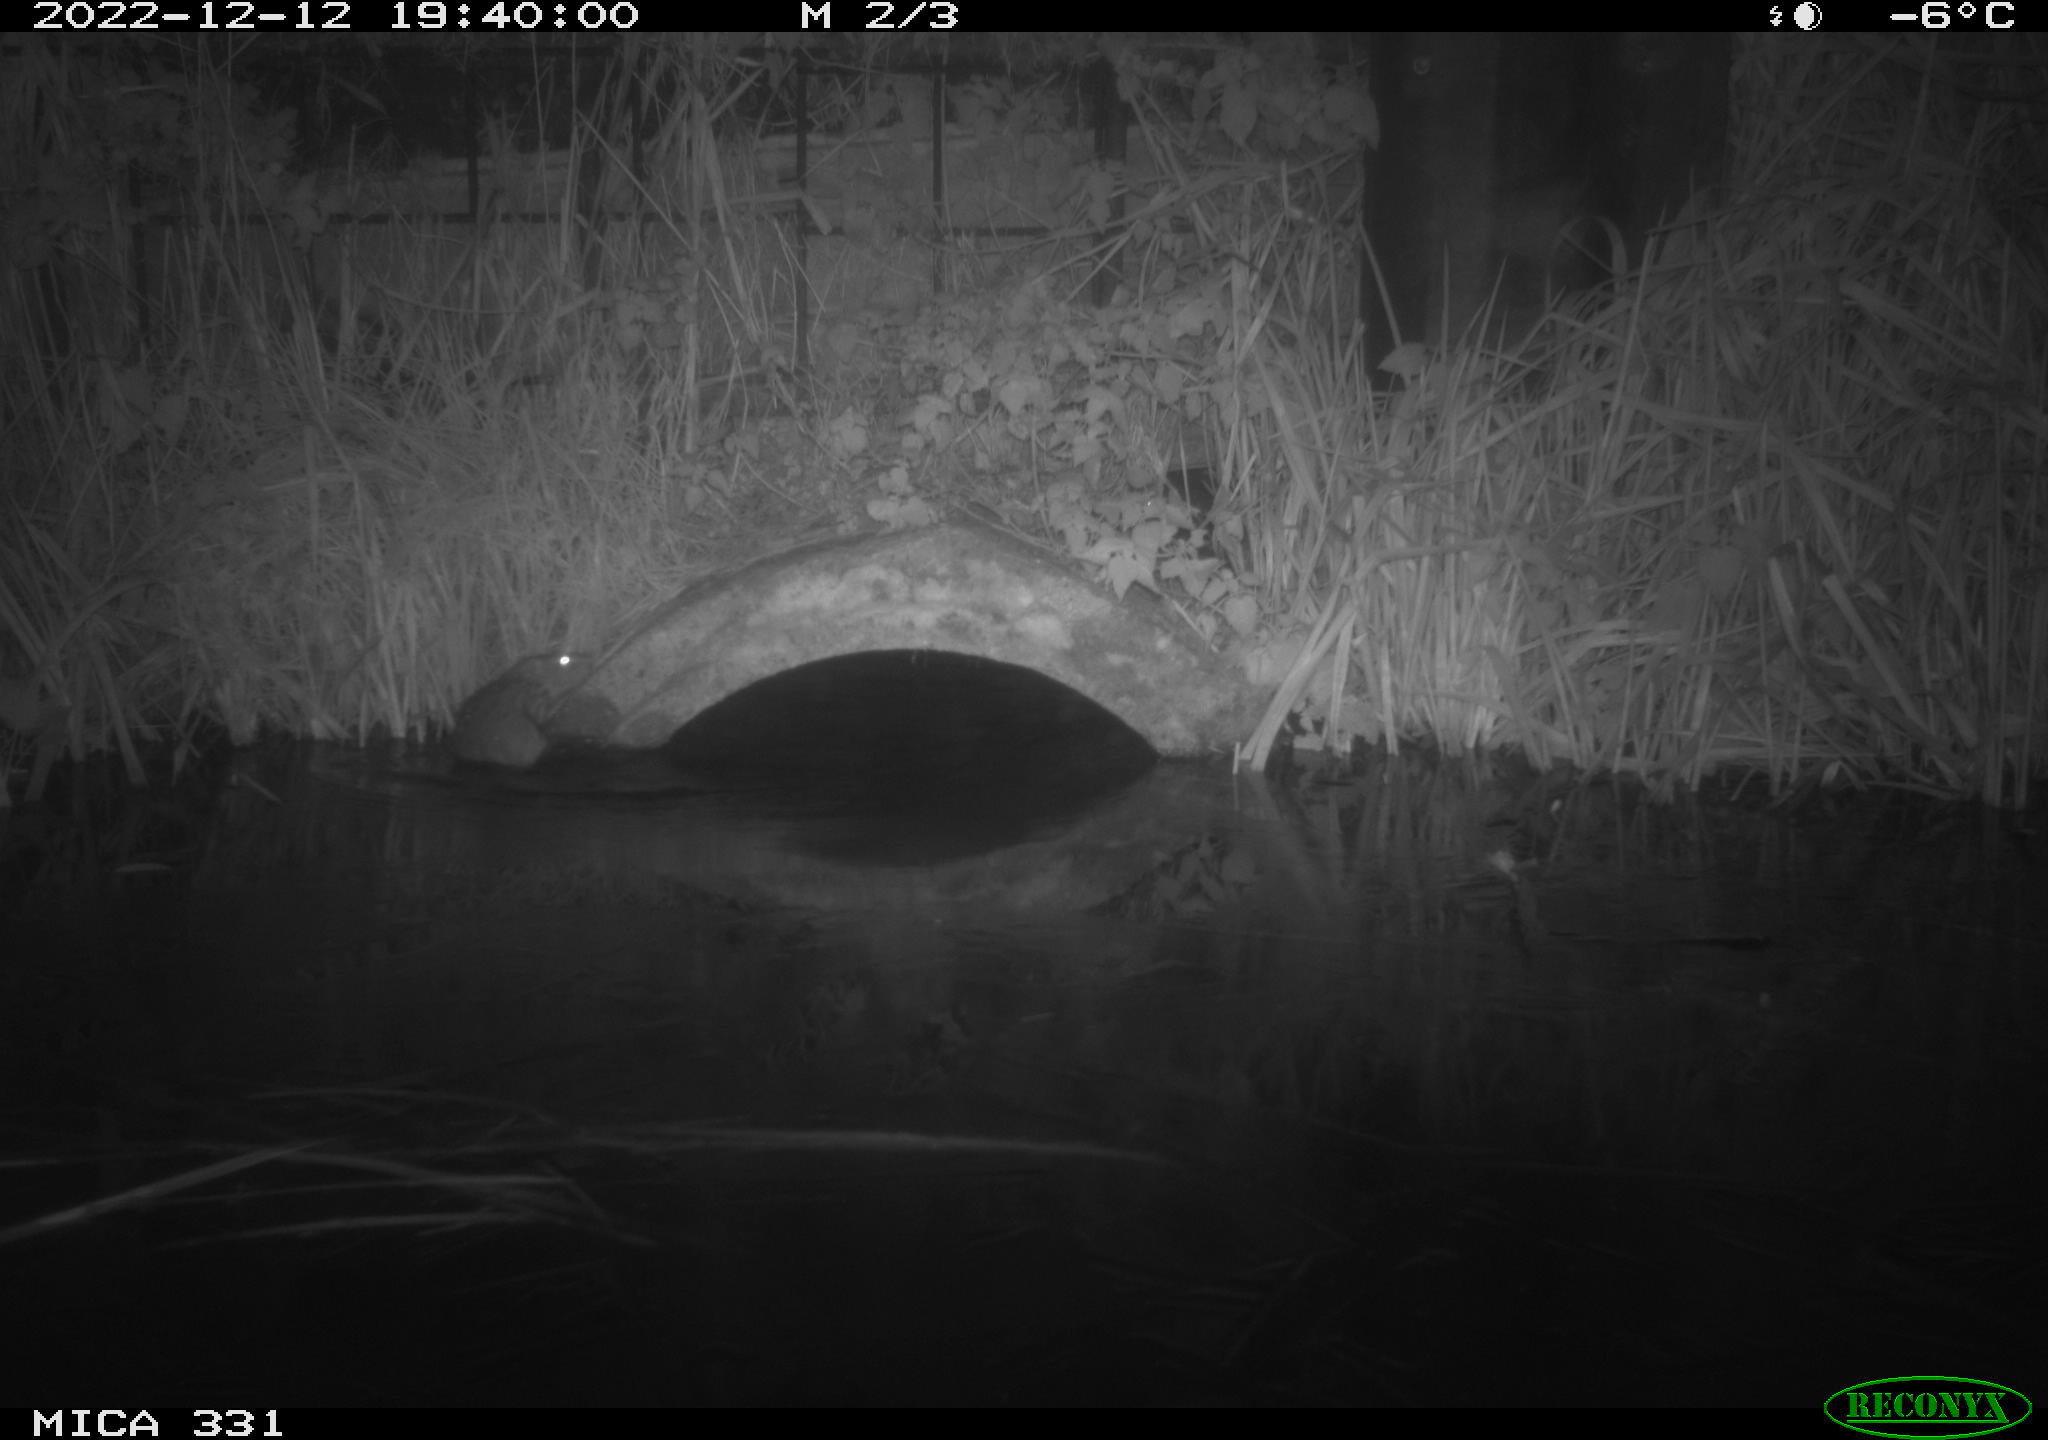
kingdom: Animalia
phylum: Chordata
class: Mammalia
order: Rodentia
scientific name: Rodentia
